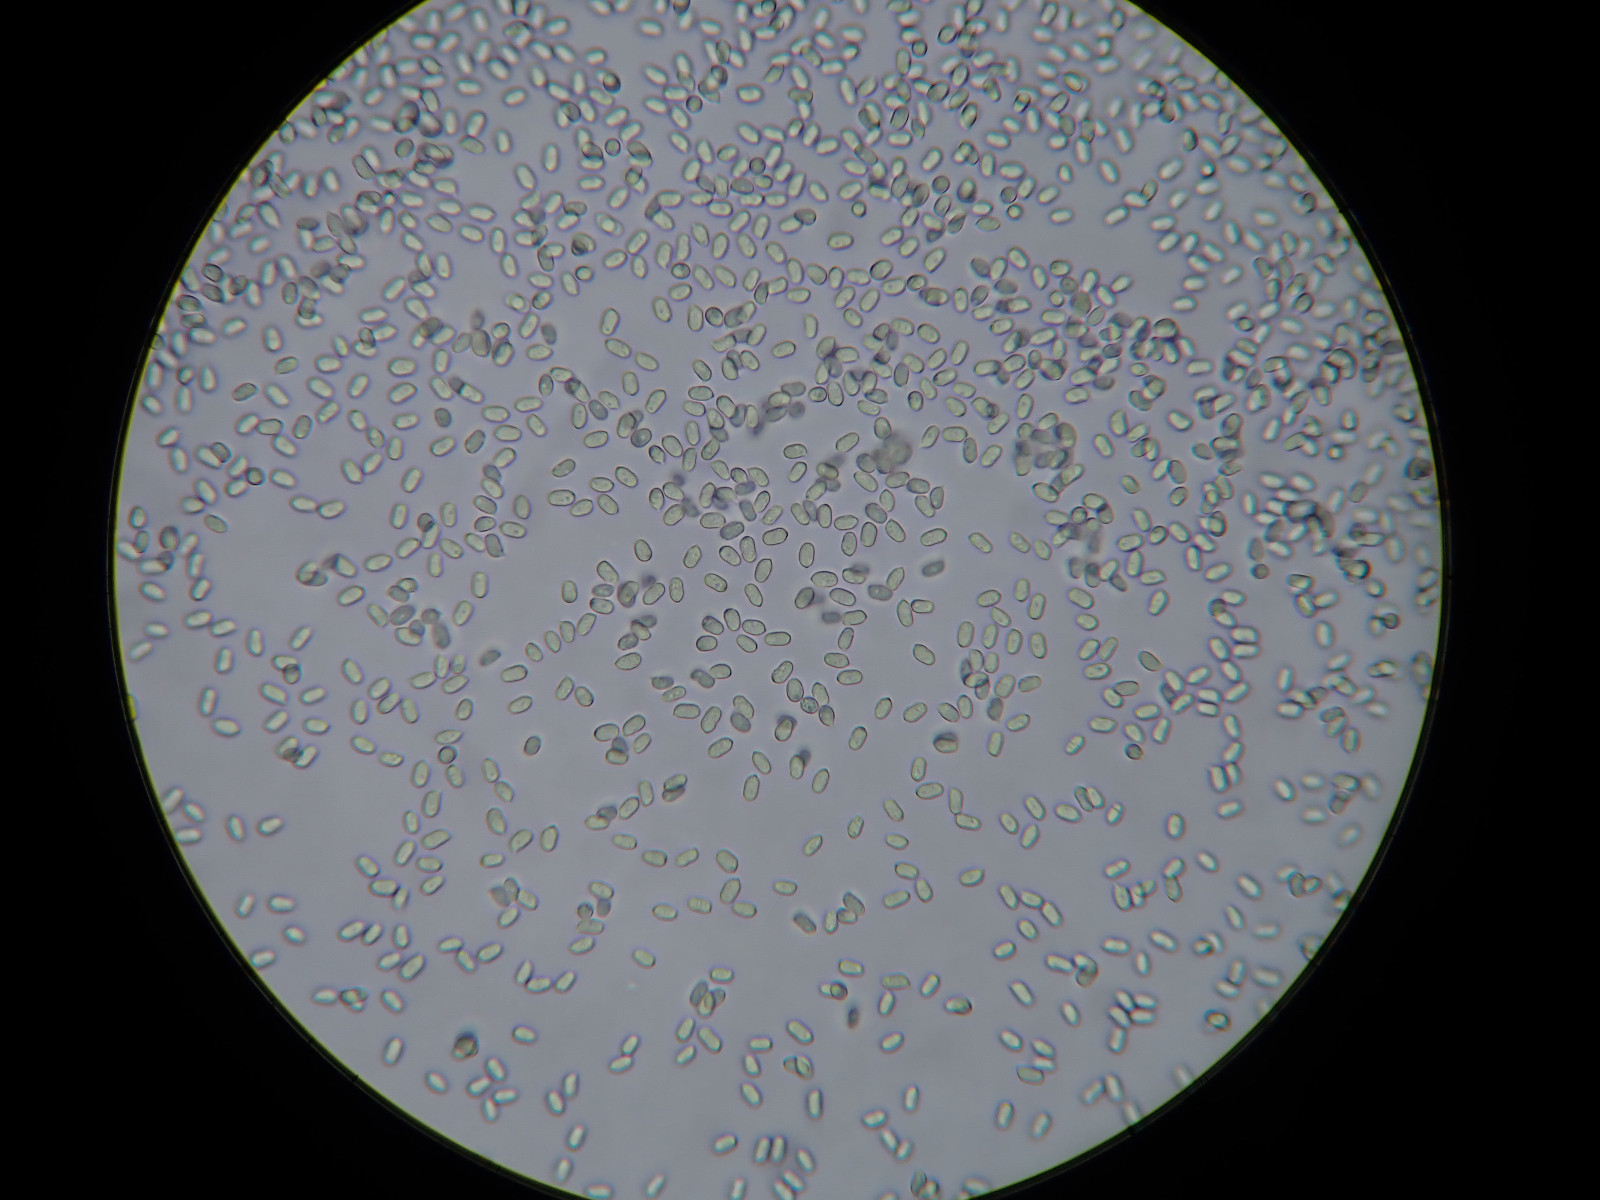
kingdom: Fungi
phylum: Basidiomycota
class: Agaricomycetes
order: Agaricales
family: Hygrophoraceae
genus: Hygrocybe
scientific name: Hygrocybe
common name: vokshat
